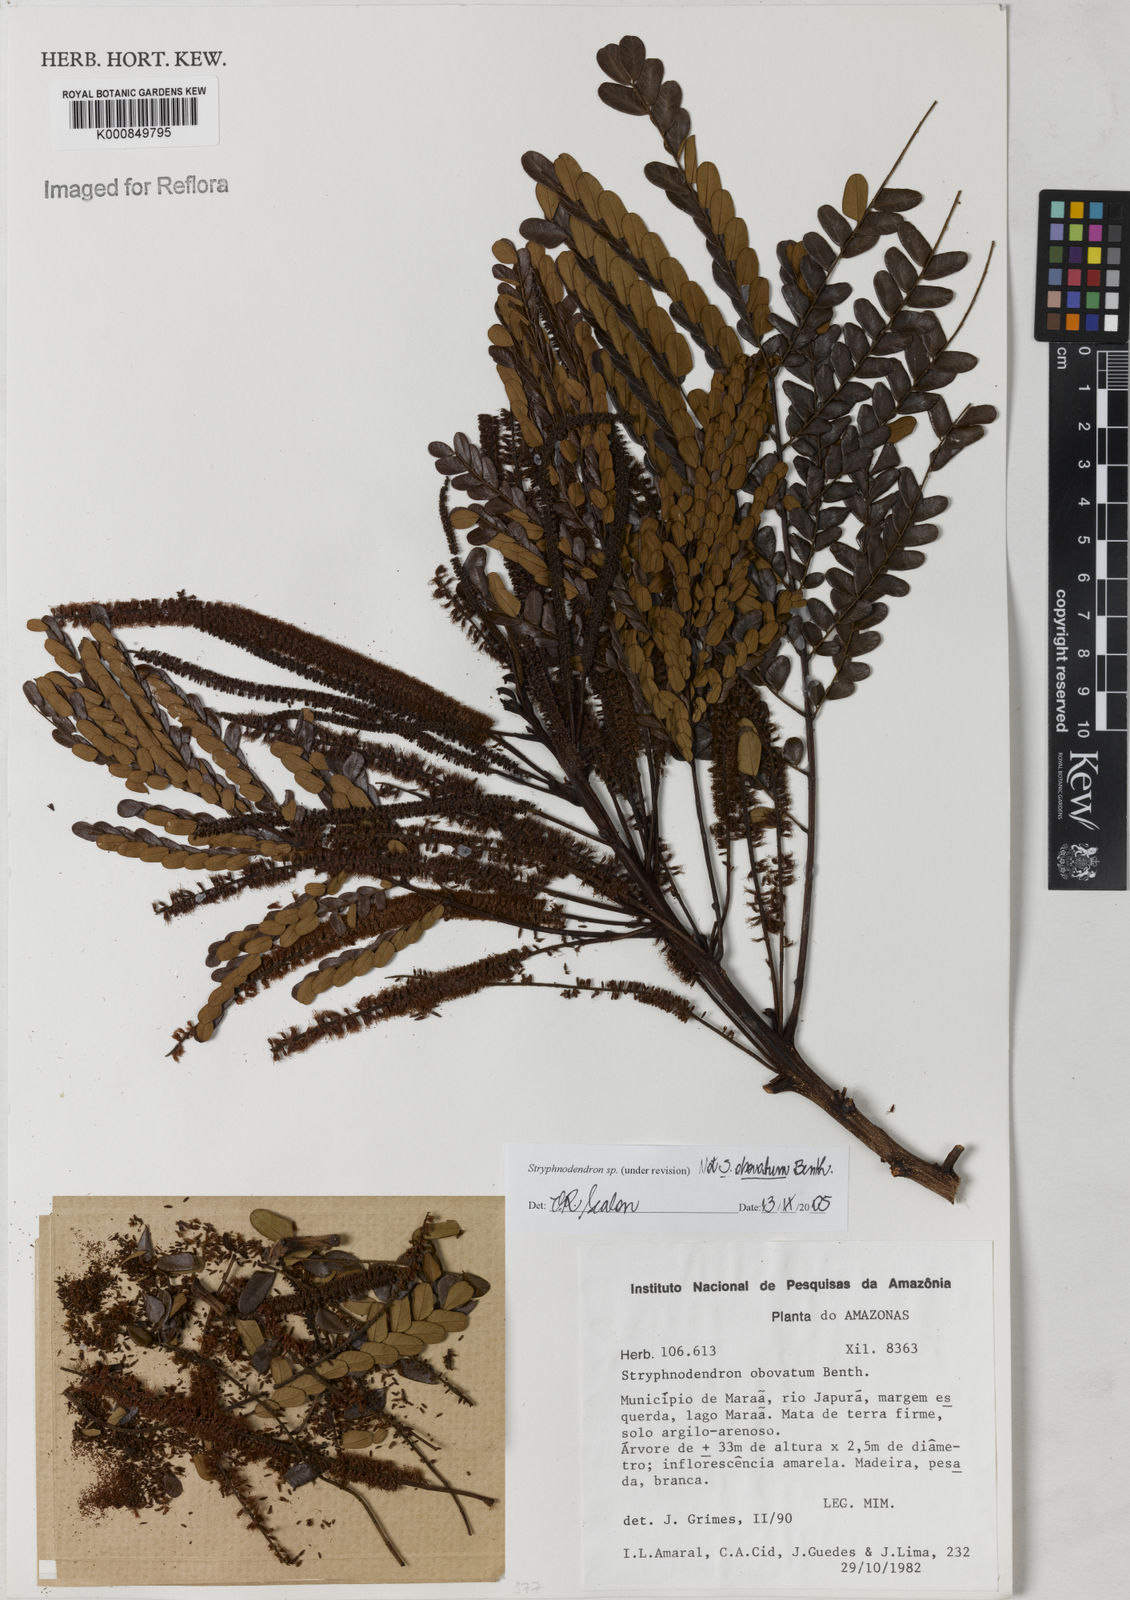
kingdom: Plantae
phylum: Tracheophyta
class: Magnoliopsida
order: Fabales
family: Fabaceae
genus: Stryphnodendron
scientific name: Stryphnodendron
